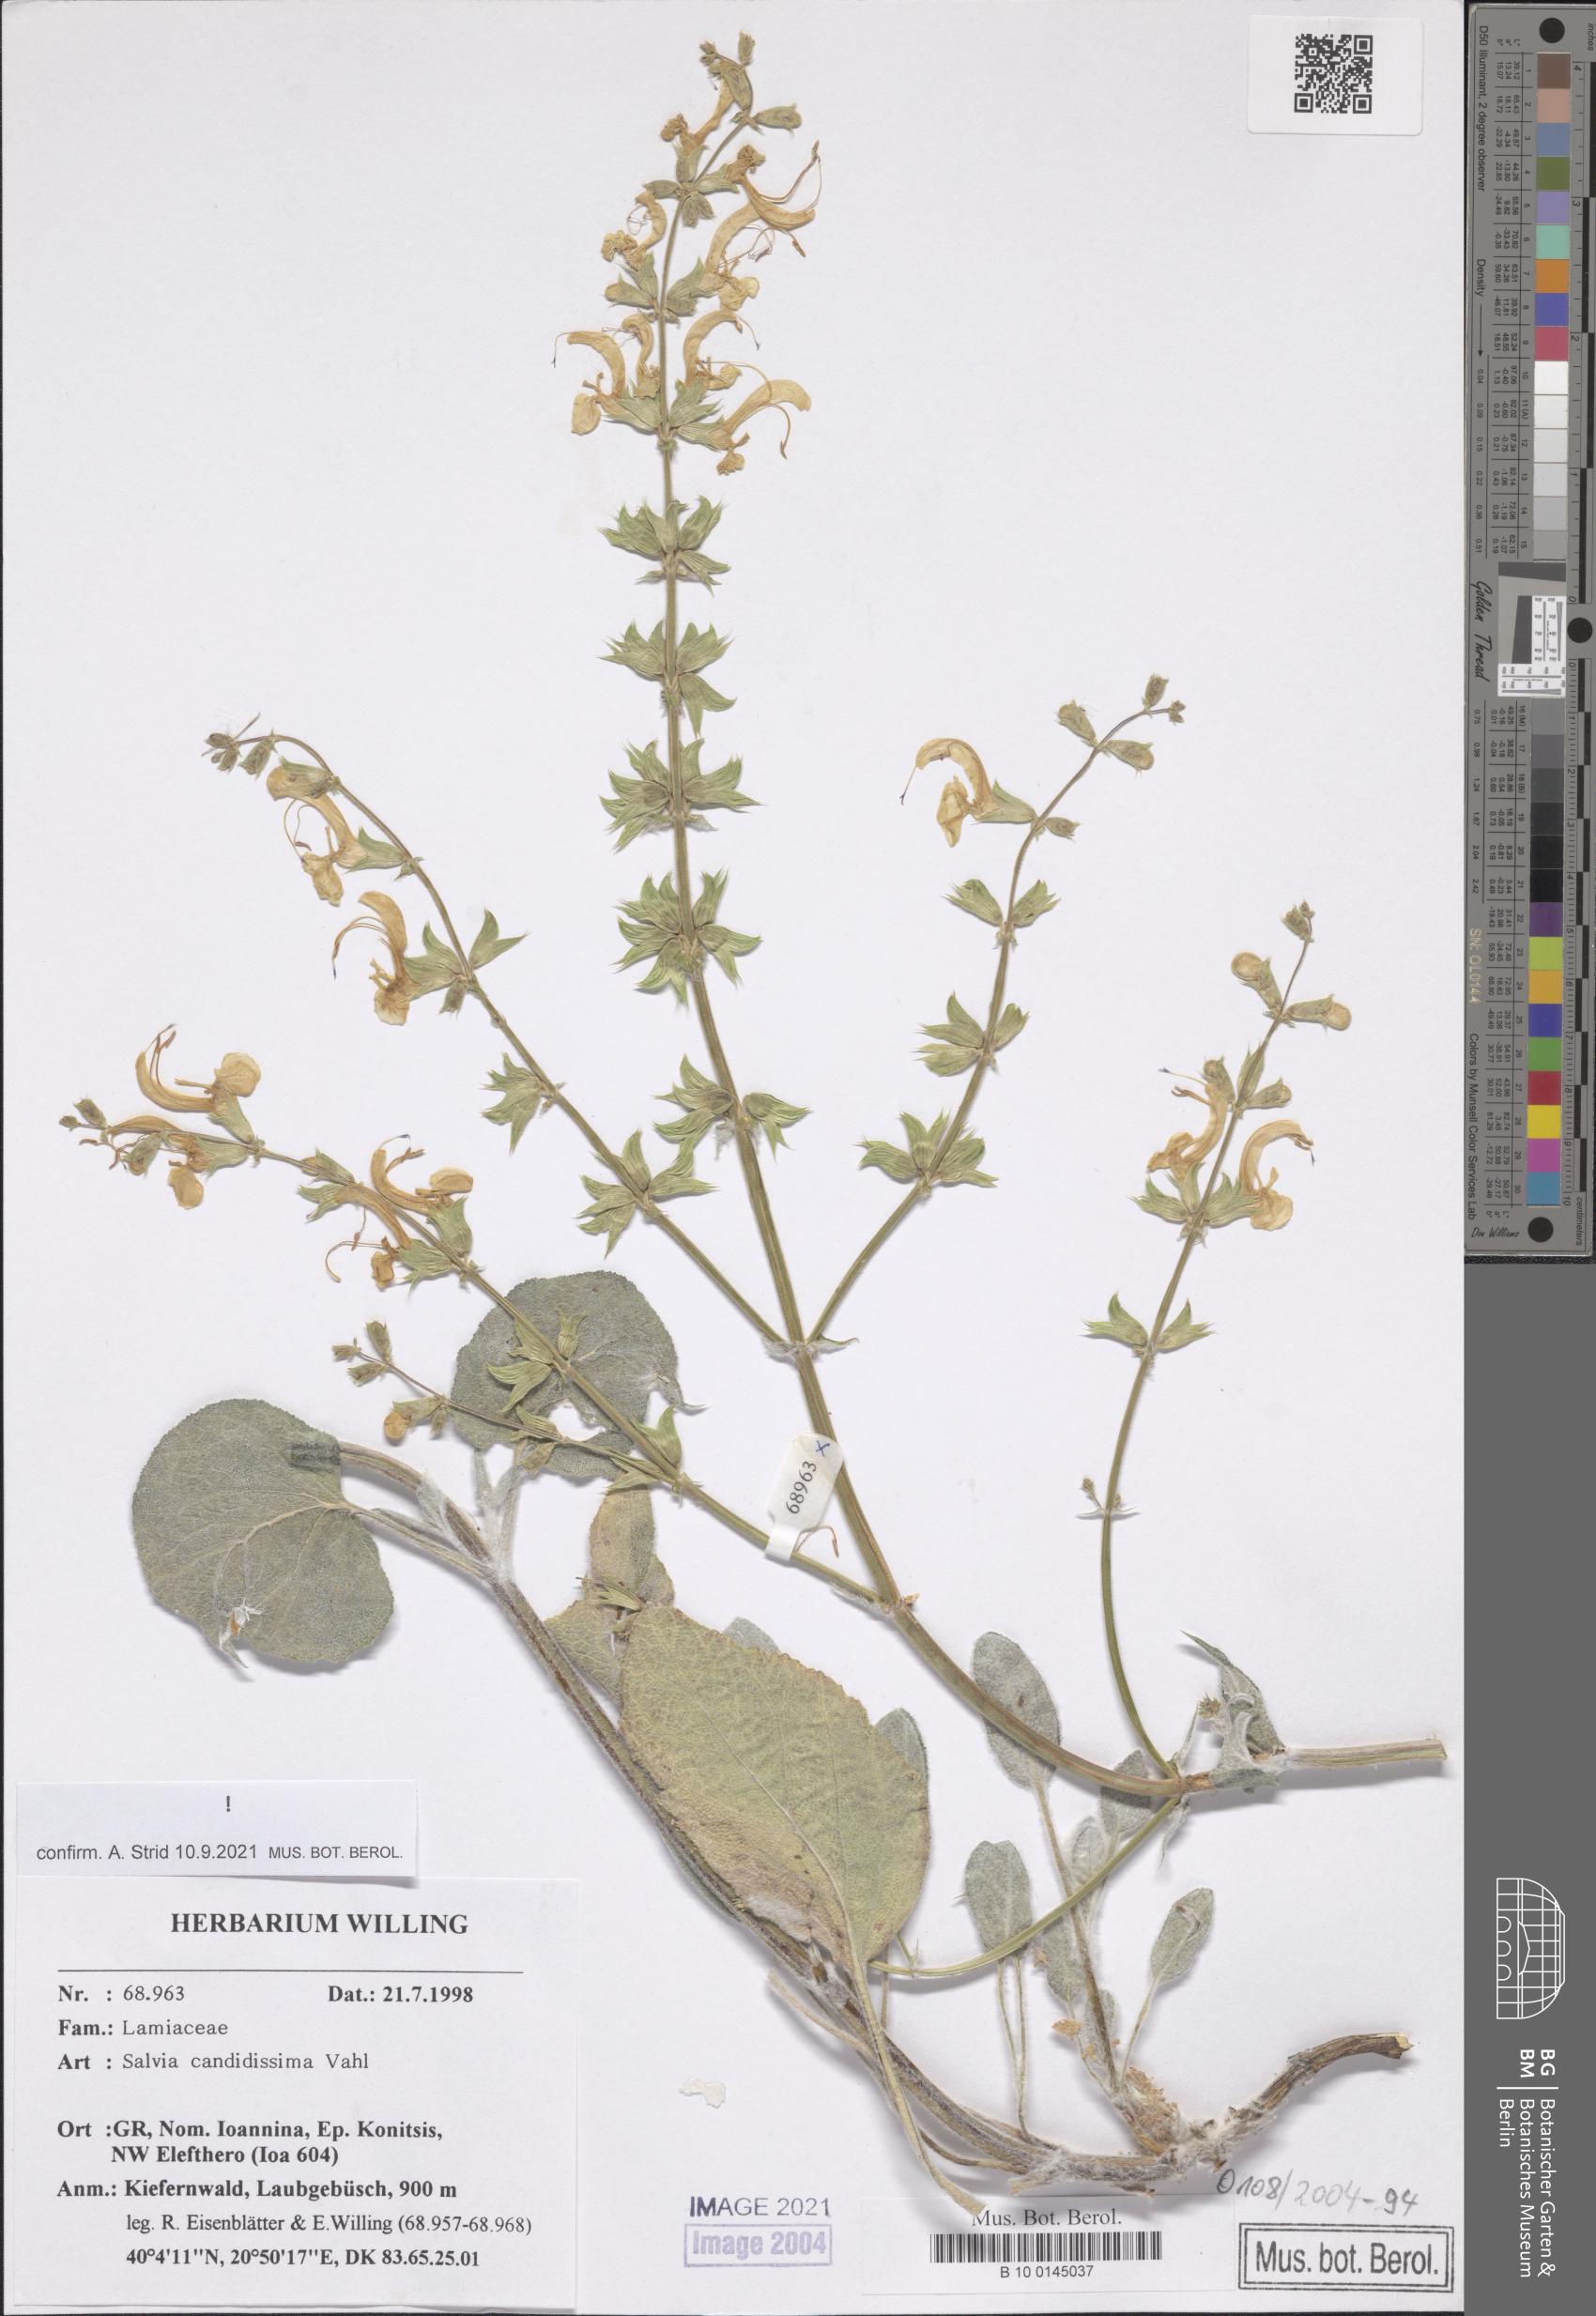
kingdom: Plantae
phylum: Tracheophyta
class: Magnoliopsida
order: Lamiales
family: Lamiaceae
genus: Salvia
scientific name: Salvia candidissima
